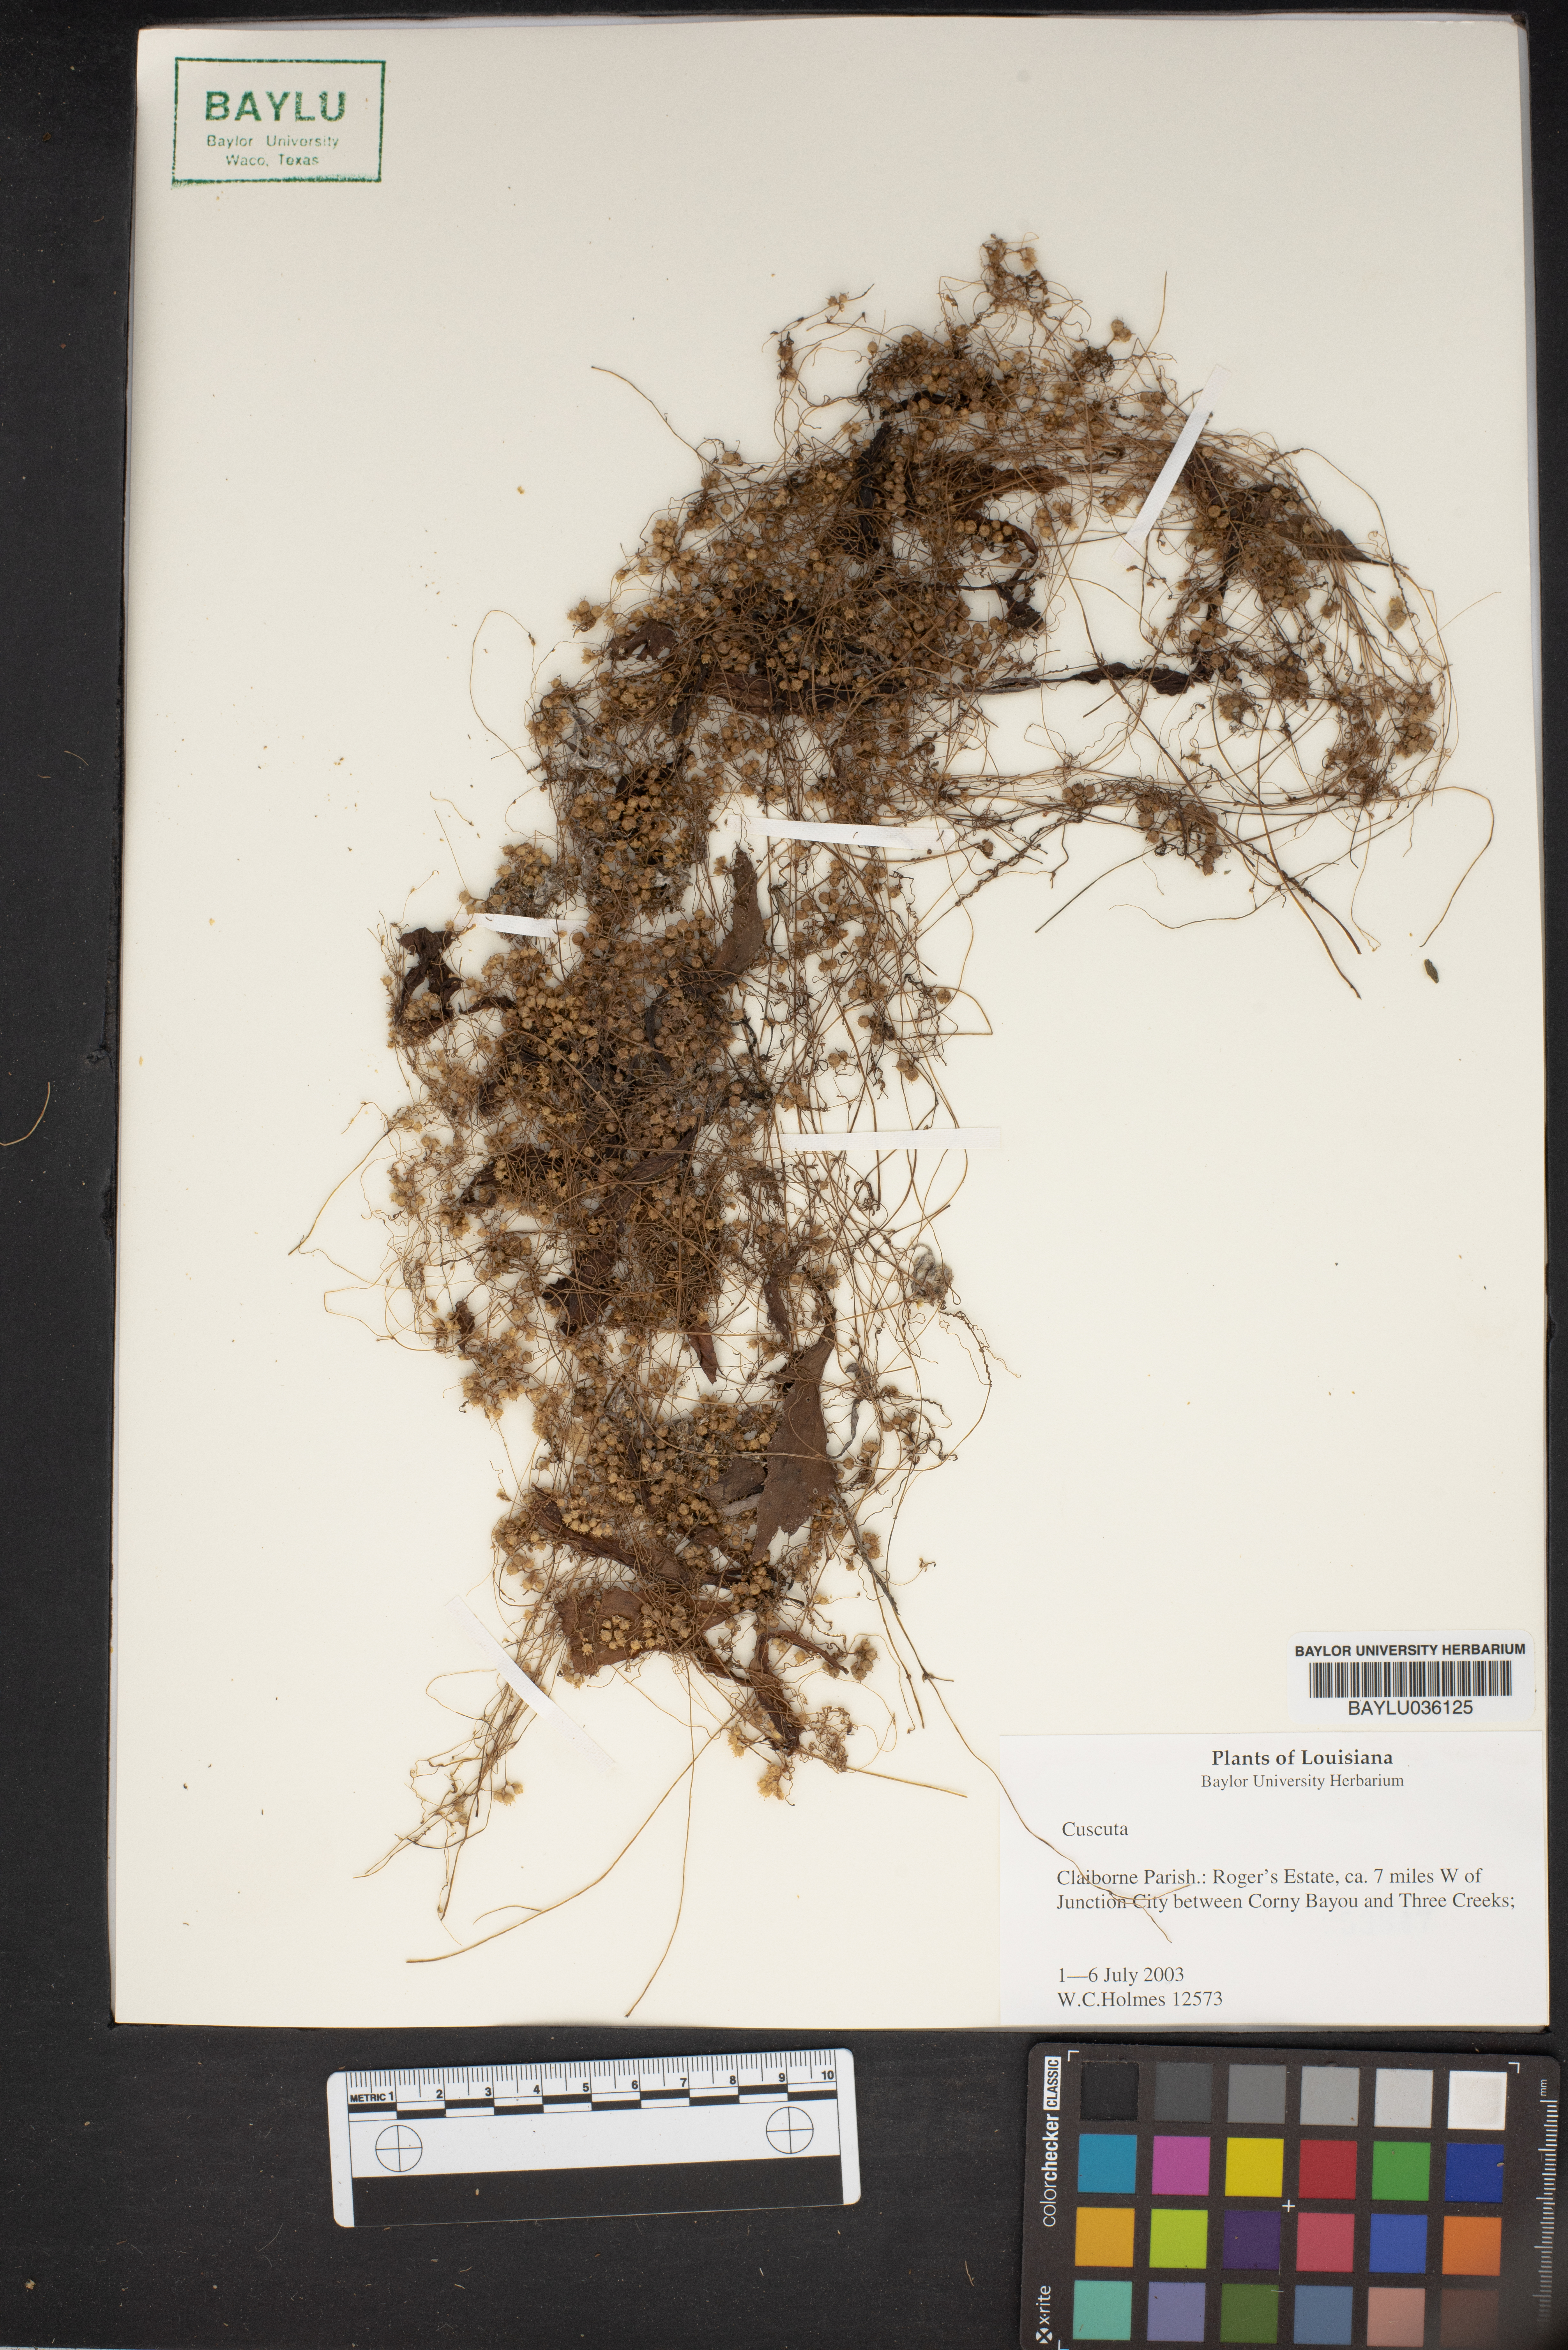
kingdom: Plantae
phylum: Tracheophyta
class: Magnoliopsida
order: Solanales
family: Convolvulaceae
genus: Cuscuta
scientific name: Cuscuta
